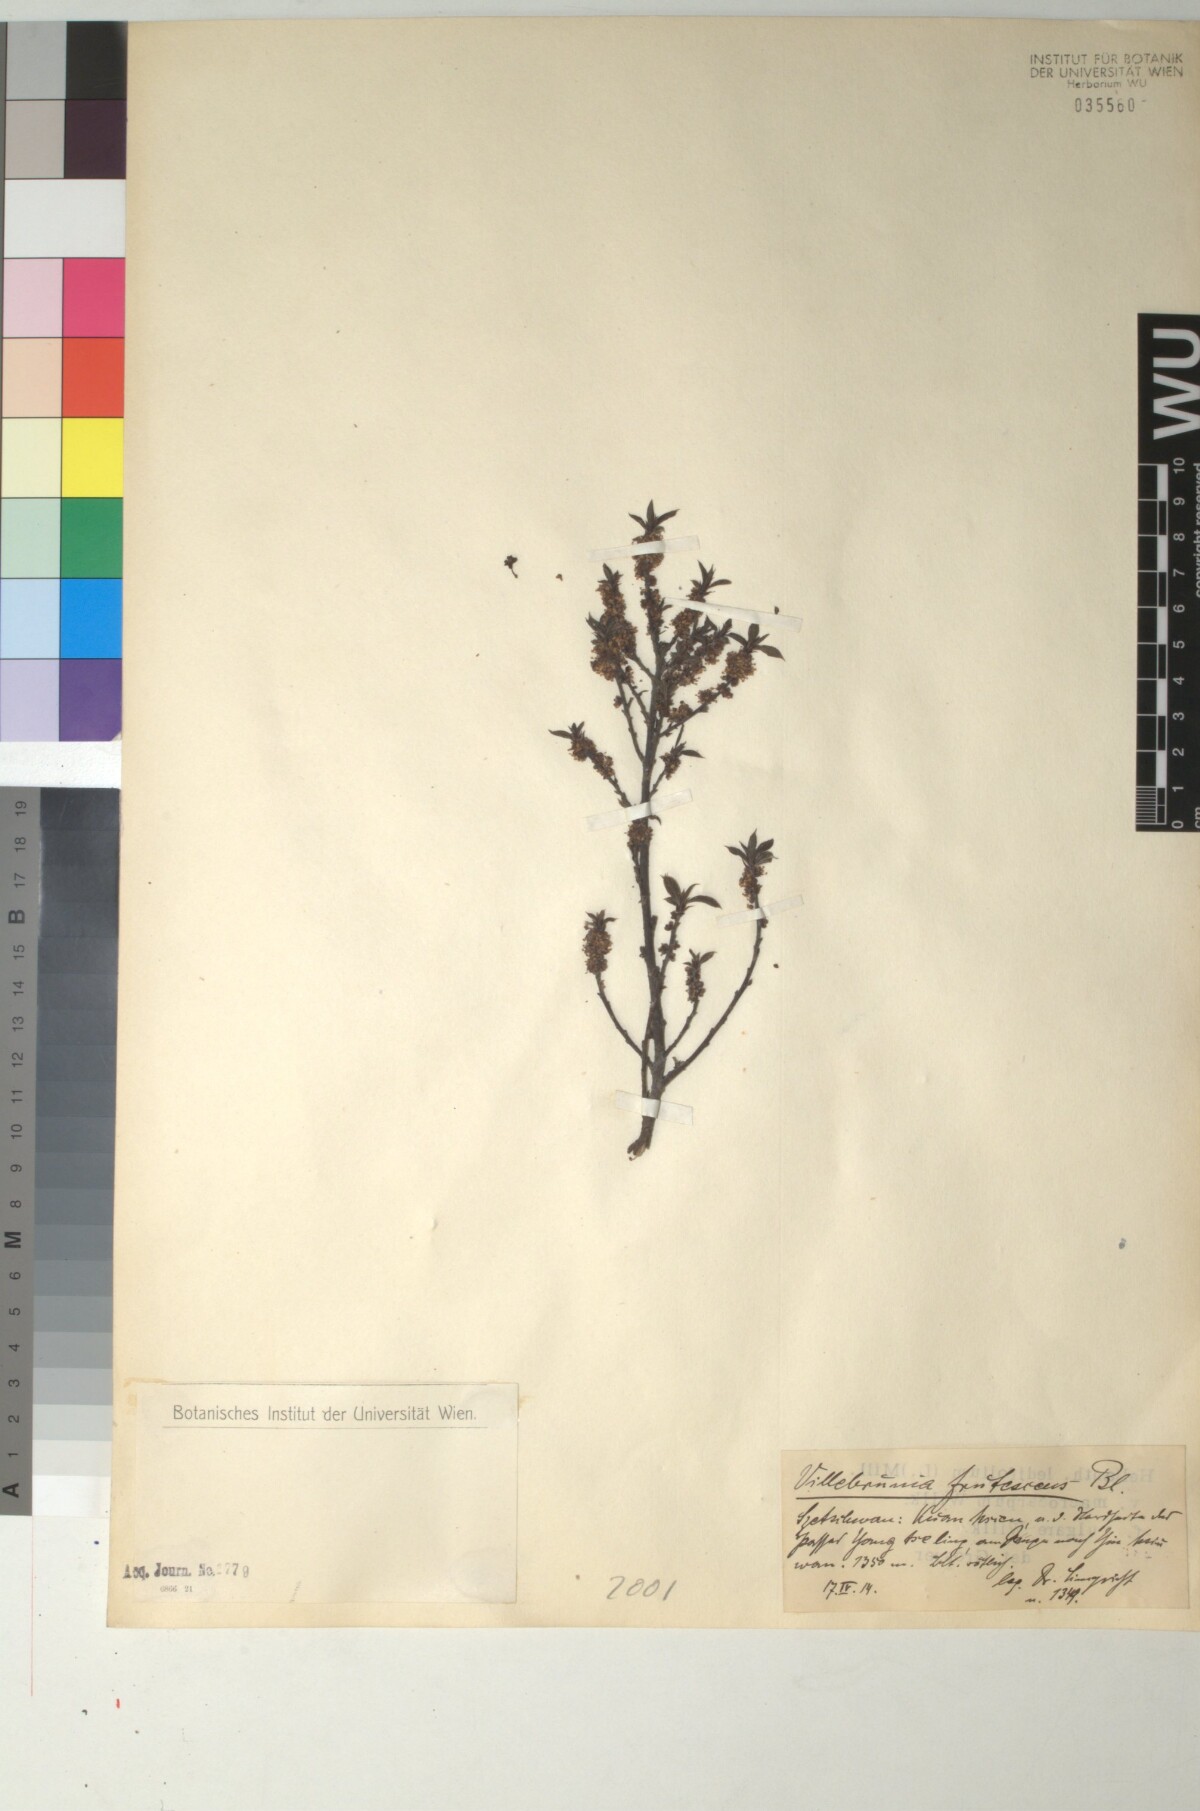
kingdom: Plantae
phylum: Tracheophyta
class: Magnoliopsida
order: Rosales
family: Urticaceae
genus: Oreocnide
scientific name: Oreocnide frutescens
